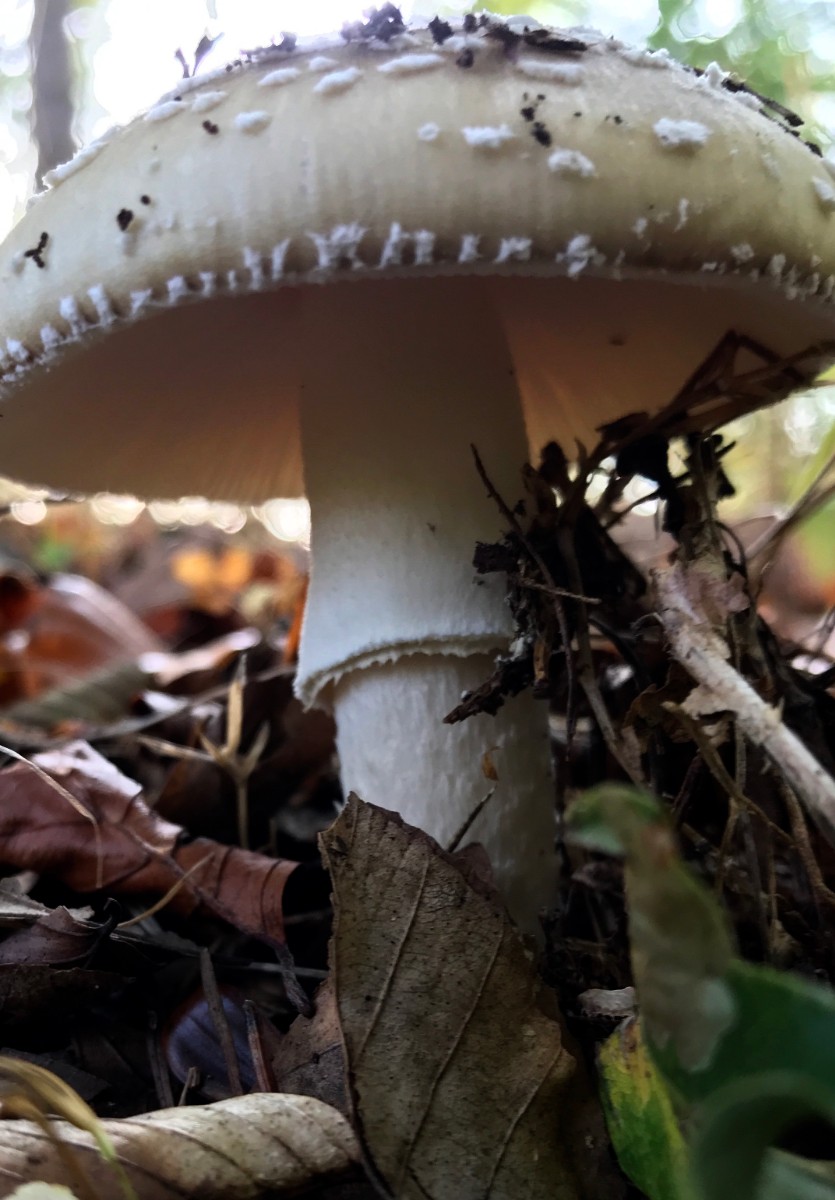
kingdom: Fungi
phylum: Basidiomycota
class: Agaricomycetes
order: Agaricales
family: Amanitaceae
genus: Amanita
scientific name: Amanita pantherina
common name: panter-fluesvamp
